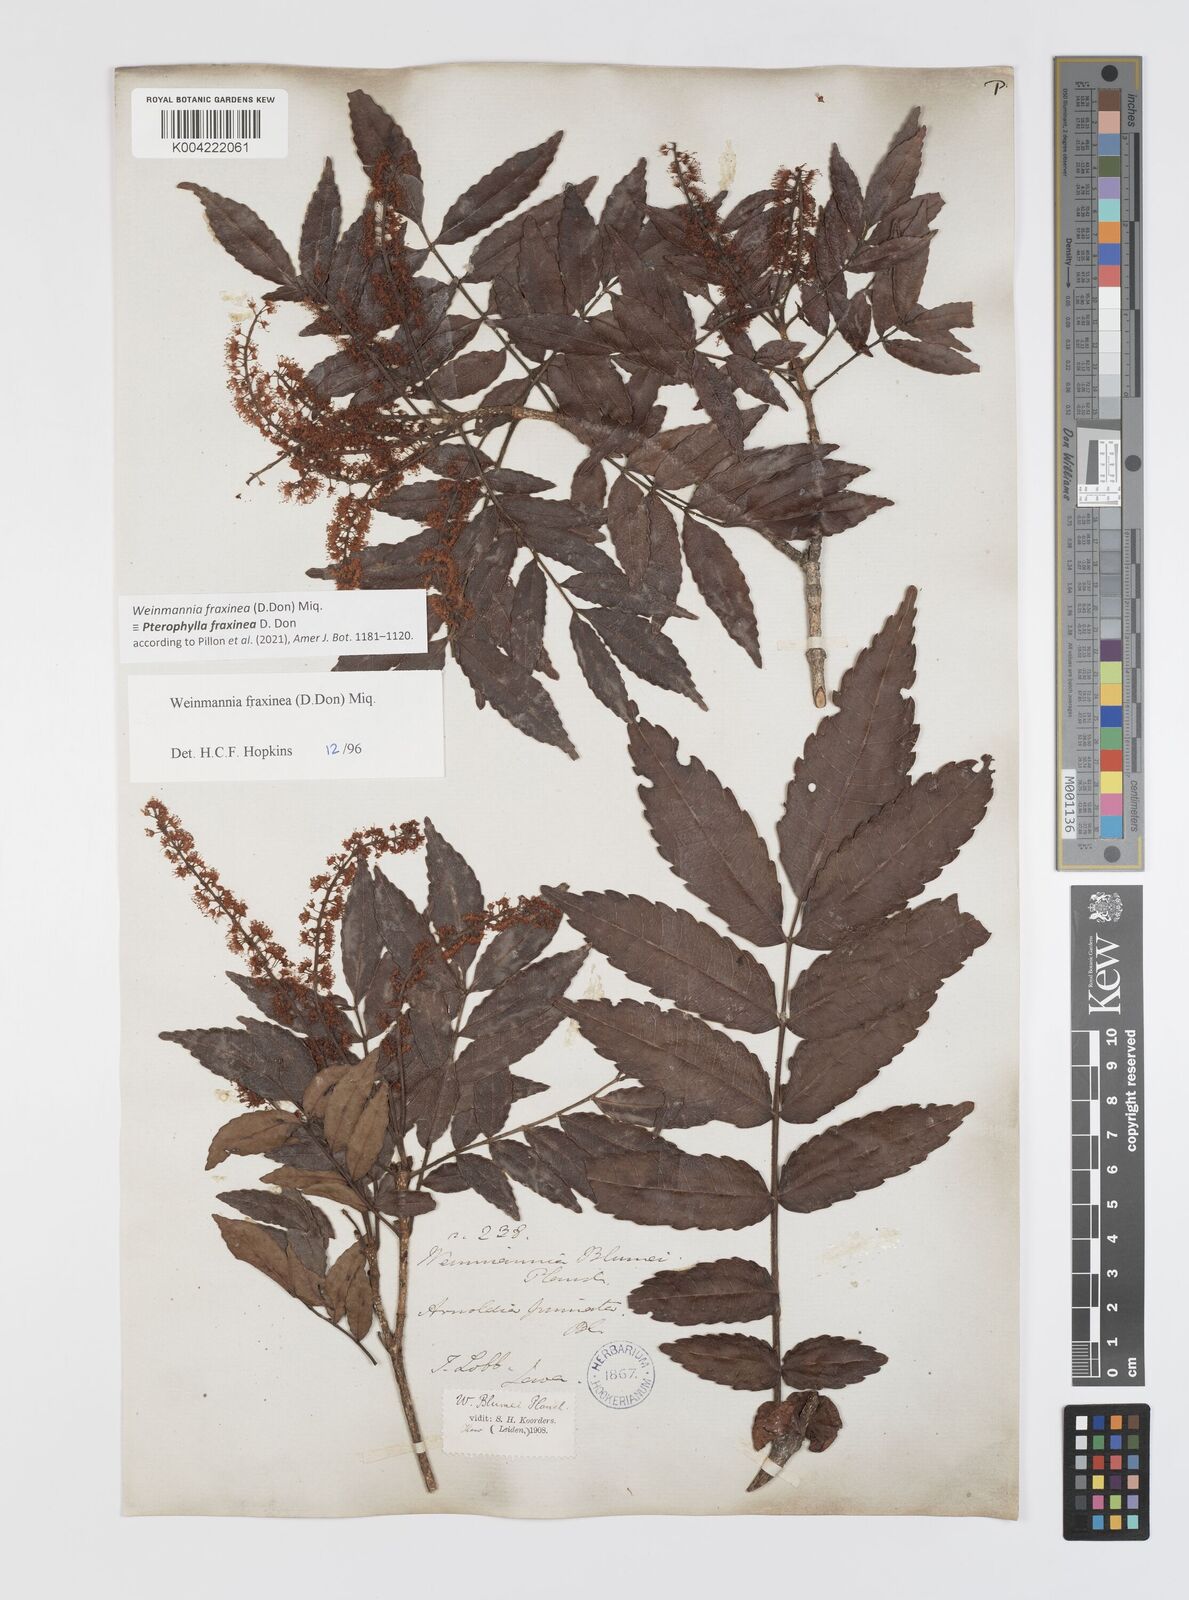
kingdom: Plantae
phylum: Tracheophyta
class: Magnoliopsida
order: Oxalidales
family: Cunoniaceae
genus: Pterophylla
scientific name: Pterophylla fraxinea
